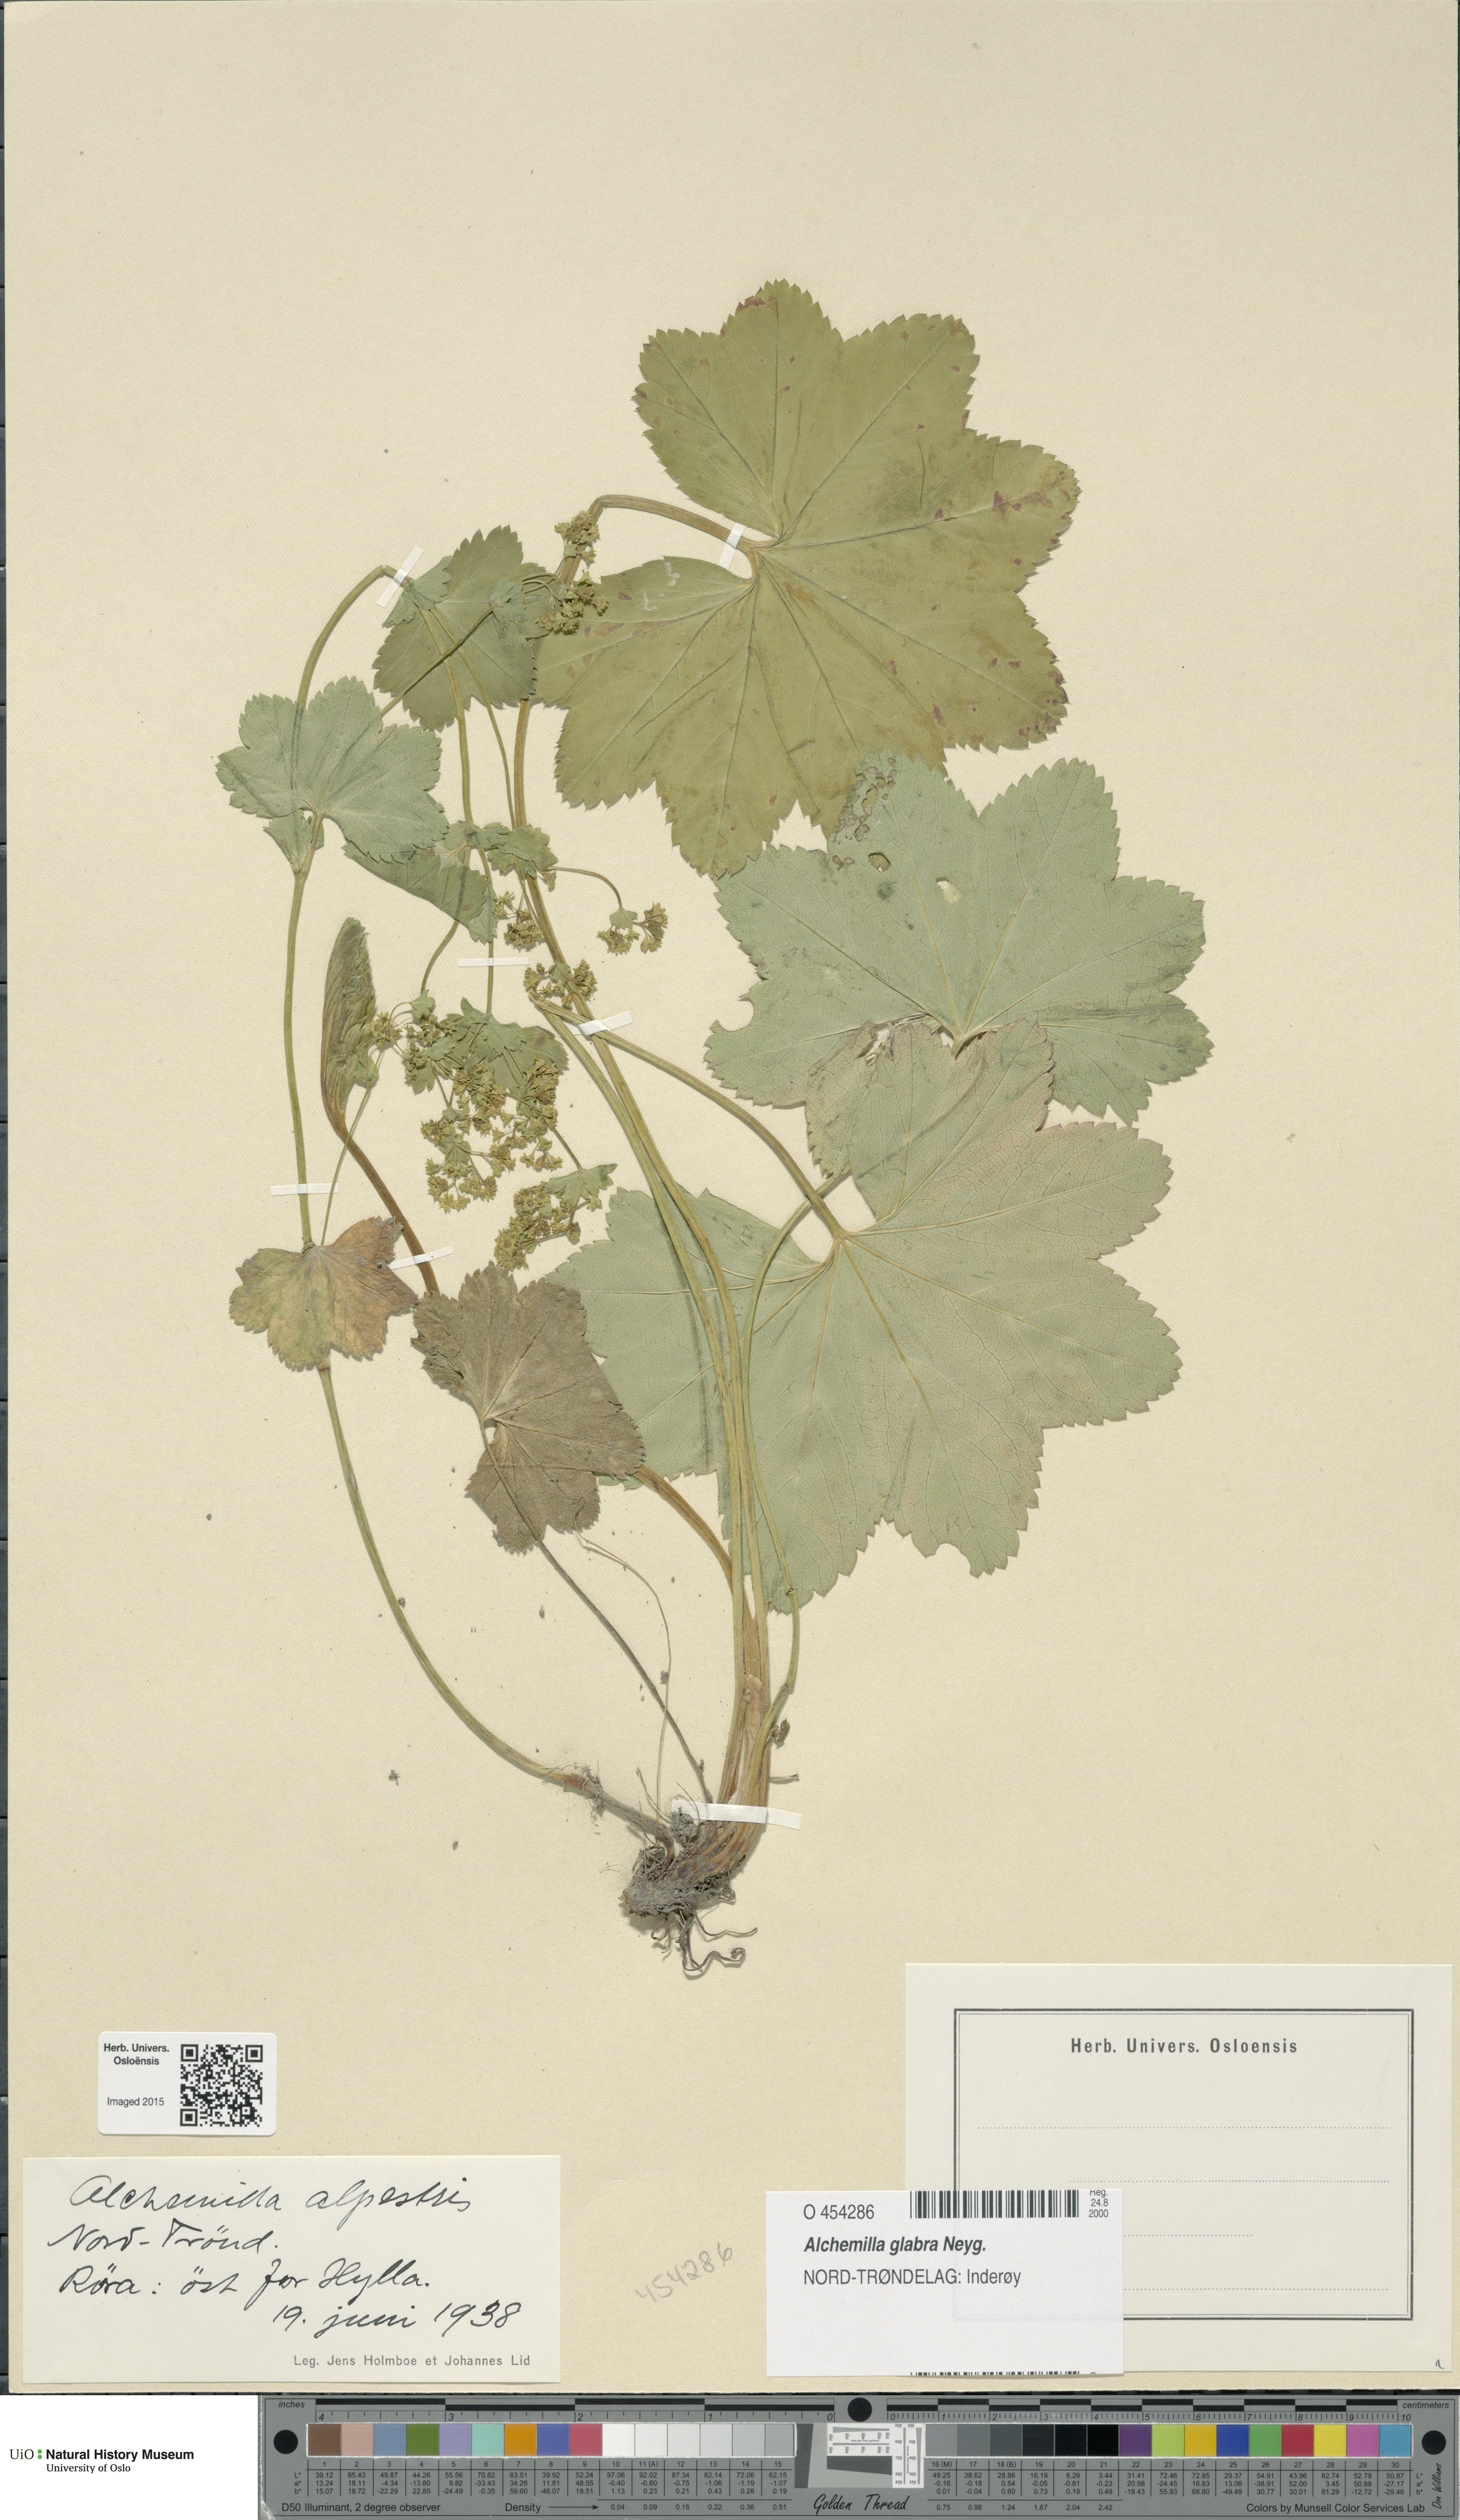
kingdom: Plantae
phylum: Tracheophyta
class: Magnoliopsida
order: Rosales
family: Rosaceae
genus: Alchemilla
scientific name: Alchemilla glabra
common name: Smooth lady's-mantle
